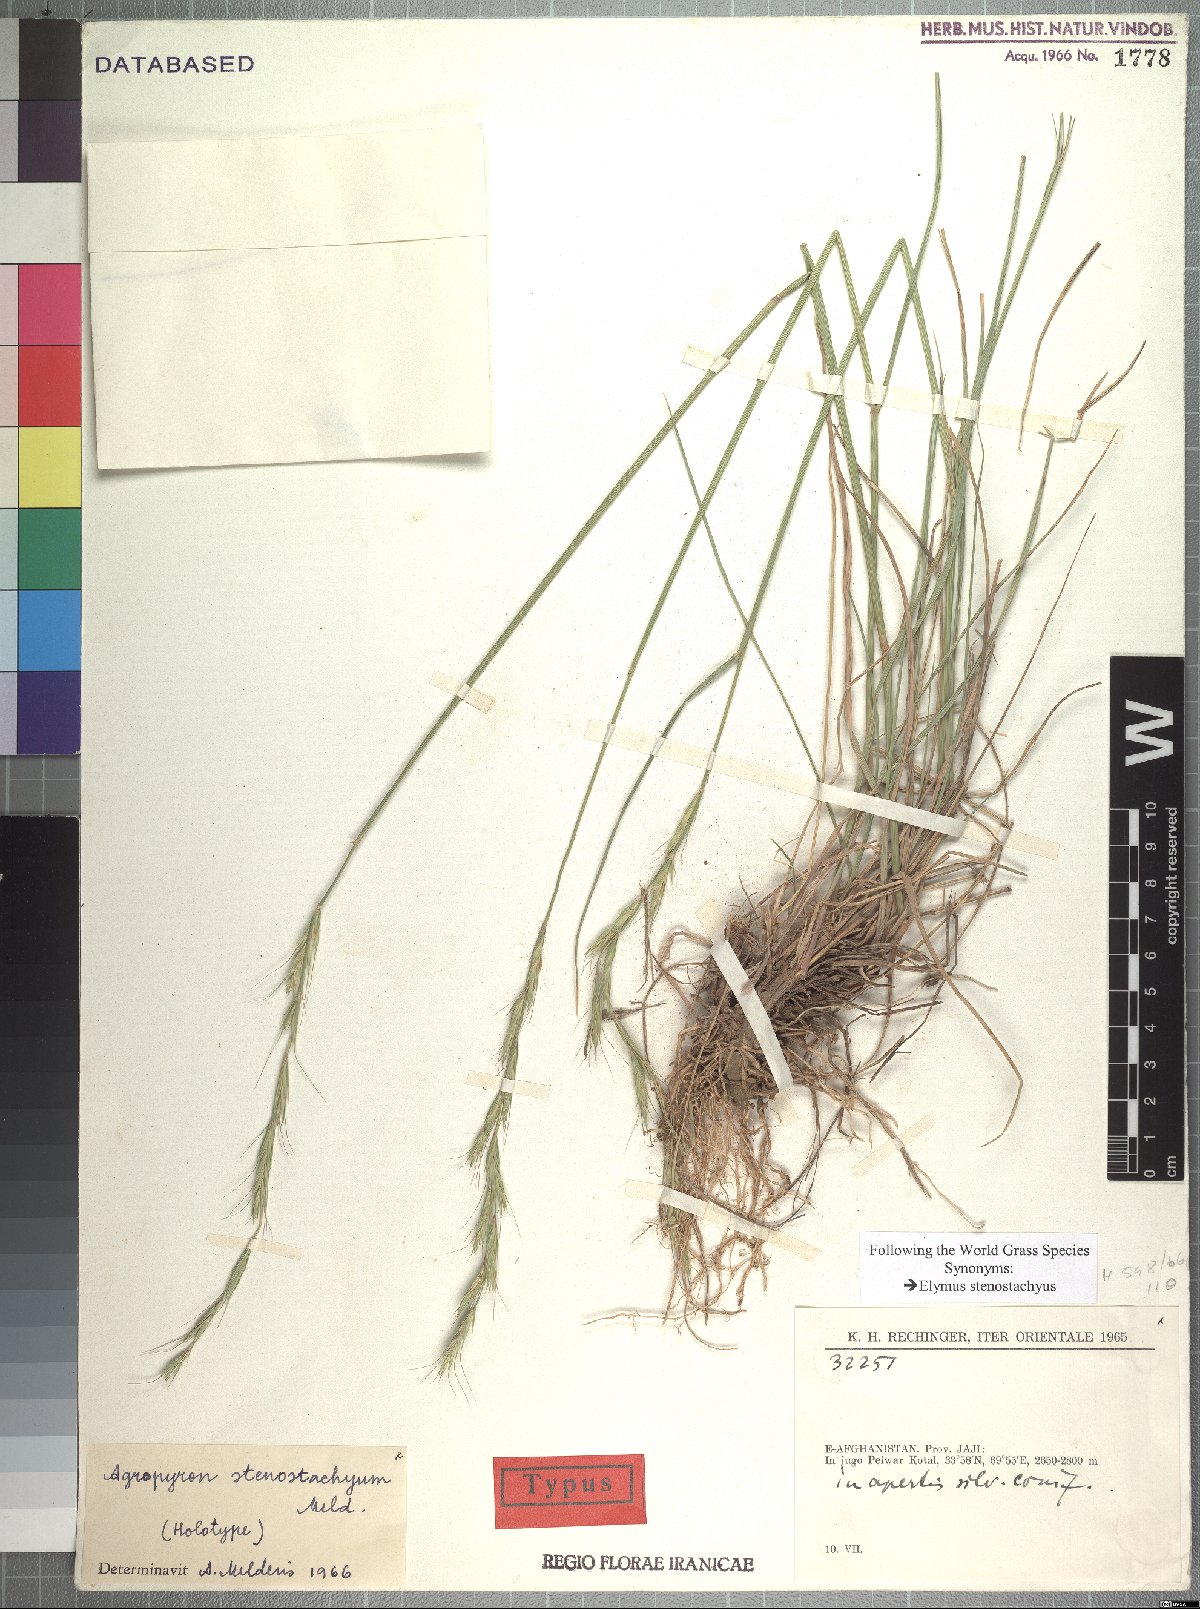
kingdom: Plantae
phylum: Tracheophyta
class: Liliopsida
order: Poales
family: Poaceae
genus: Elymus
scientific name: Elymus stenostachyus
